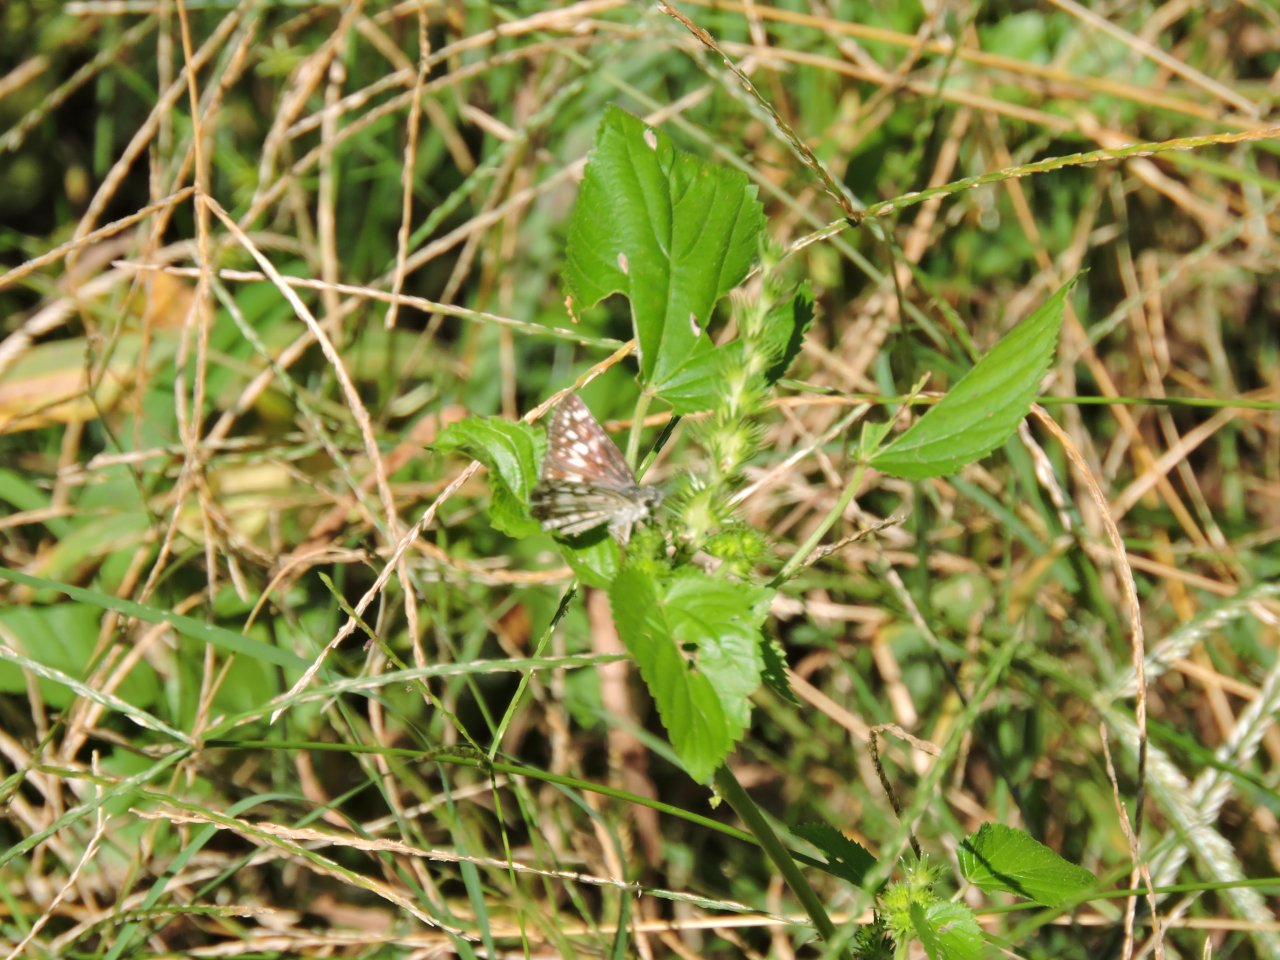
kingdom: Animalia
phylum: Arthropoda
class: Insecta
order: Lepidoptera
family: Hesperiidae
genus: Pyrgus
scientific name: Pyrgus
